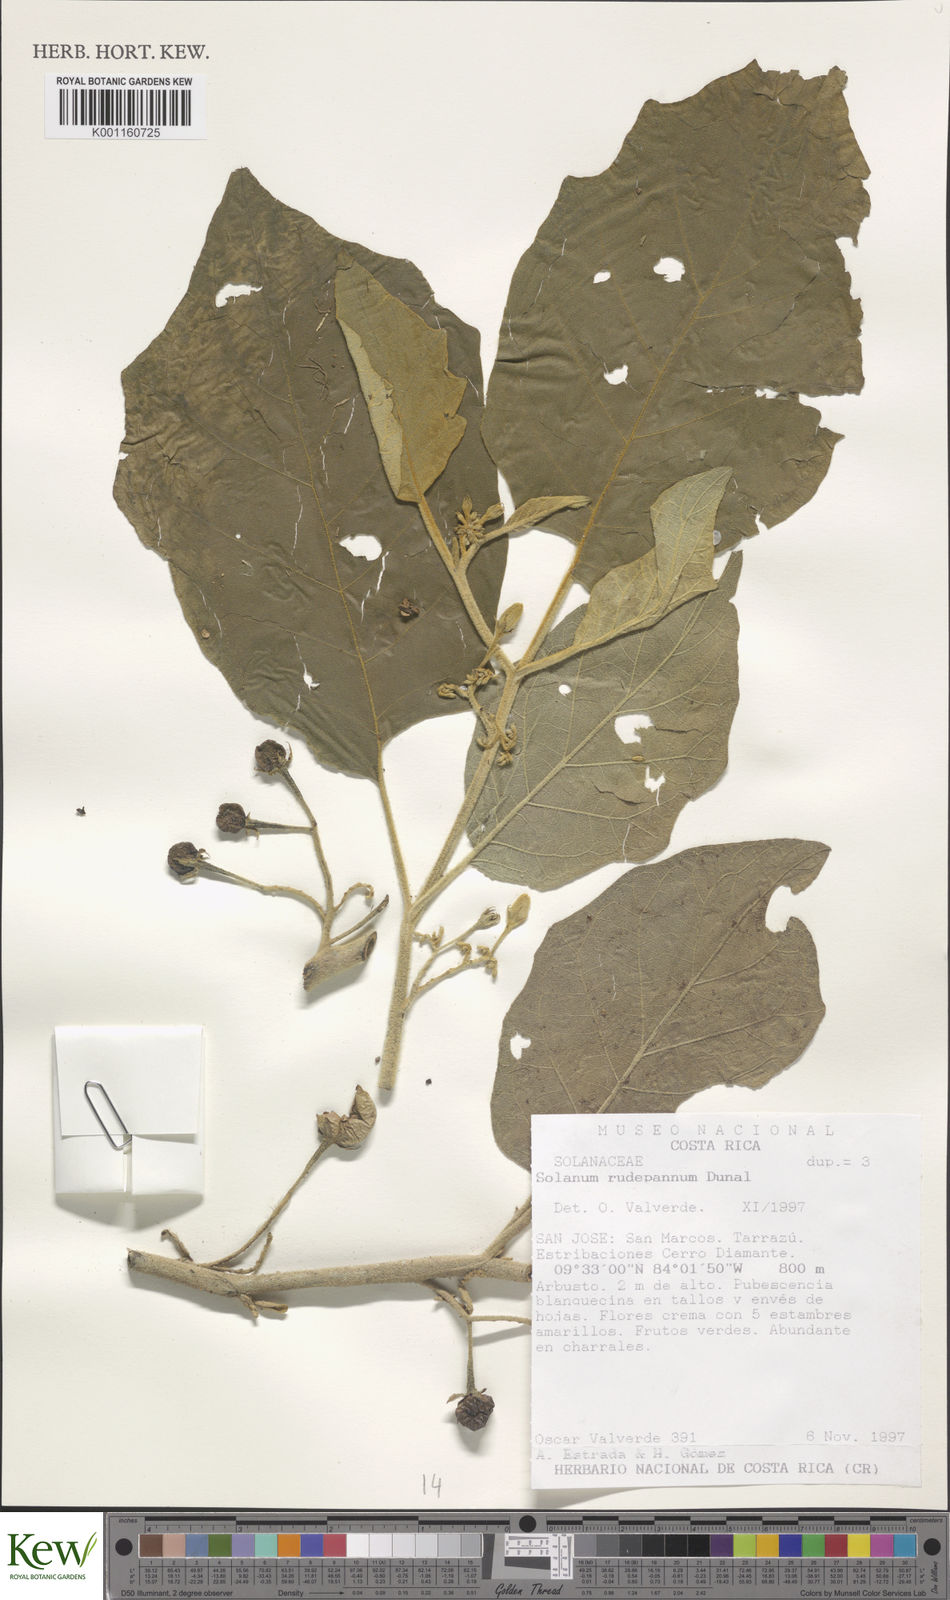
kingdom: Plantae
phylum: Tracheophyta
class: Magnoliopsida
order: Solanales
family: Solanaceae
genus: Solanum
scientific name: Solanum rude-pannum
